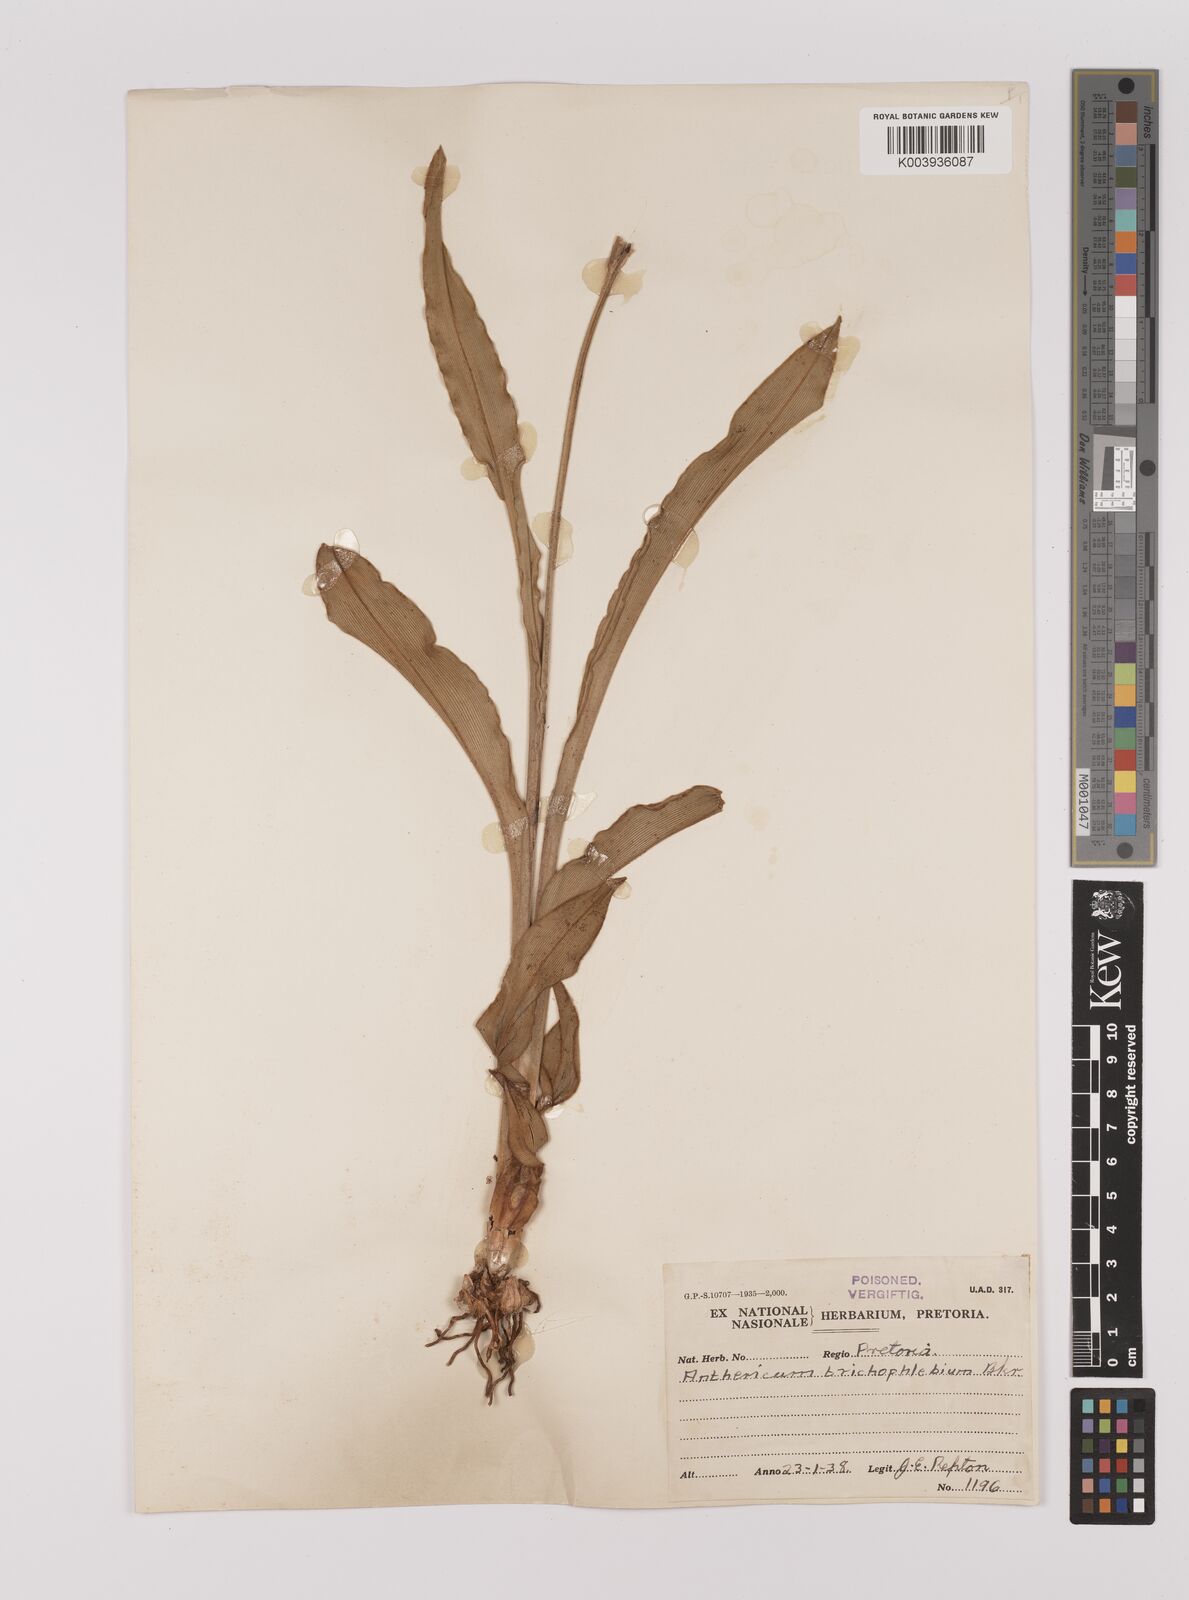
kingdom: Plantae
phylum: Tracheophyta
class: Liliopsida
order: Asparagales
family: Asparagaceae
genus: Chlorophytum
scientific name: Chlorophytum trichophlebium
